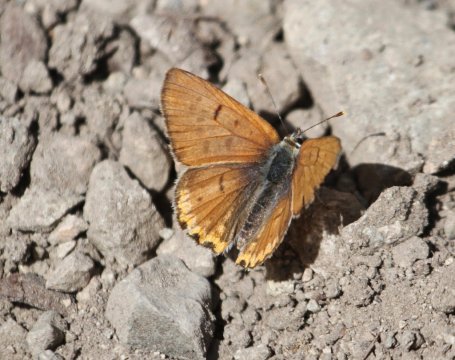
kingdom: Animalia
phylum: Arthropoda
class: Insecta
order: Lepidoptera
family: Lycaenidae
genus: Lycaena
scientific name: Lycaena nivalis
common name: Lilac-bordered Copper
